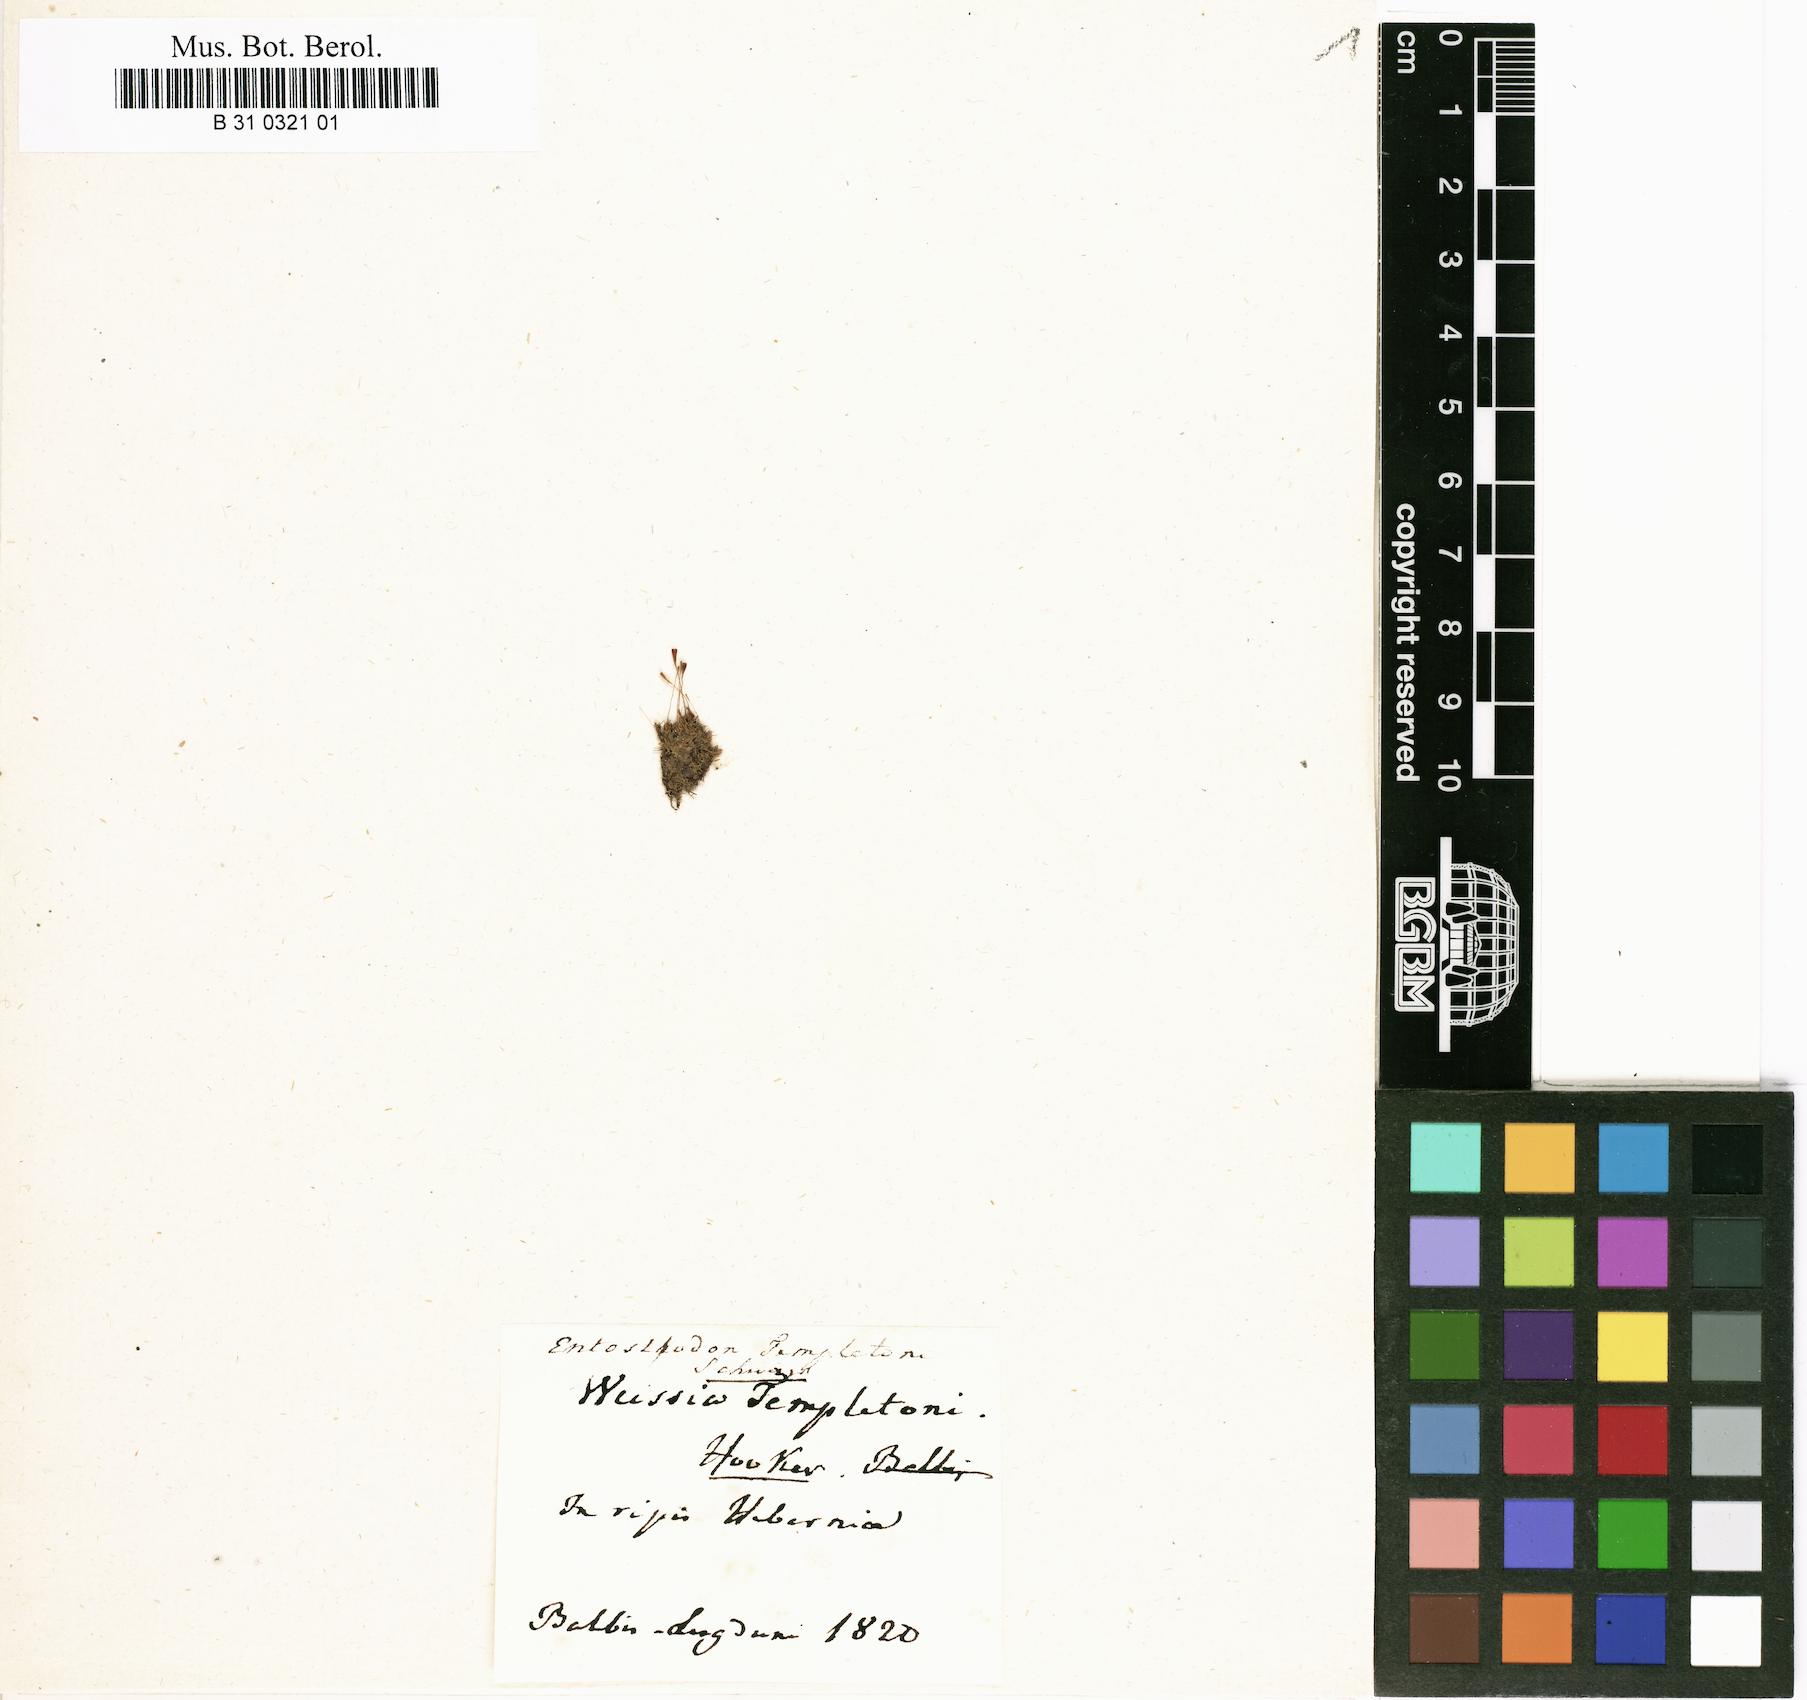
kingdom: Plantae
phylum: Bryophyta
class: Bryopsida
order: Funariales
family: Funariaceae
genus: Entosthodon
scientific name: Entosthodon attenuatus
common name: Thin cord-moss
